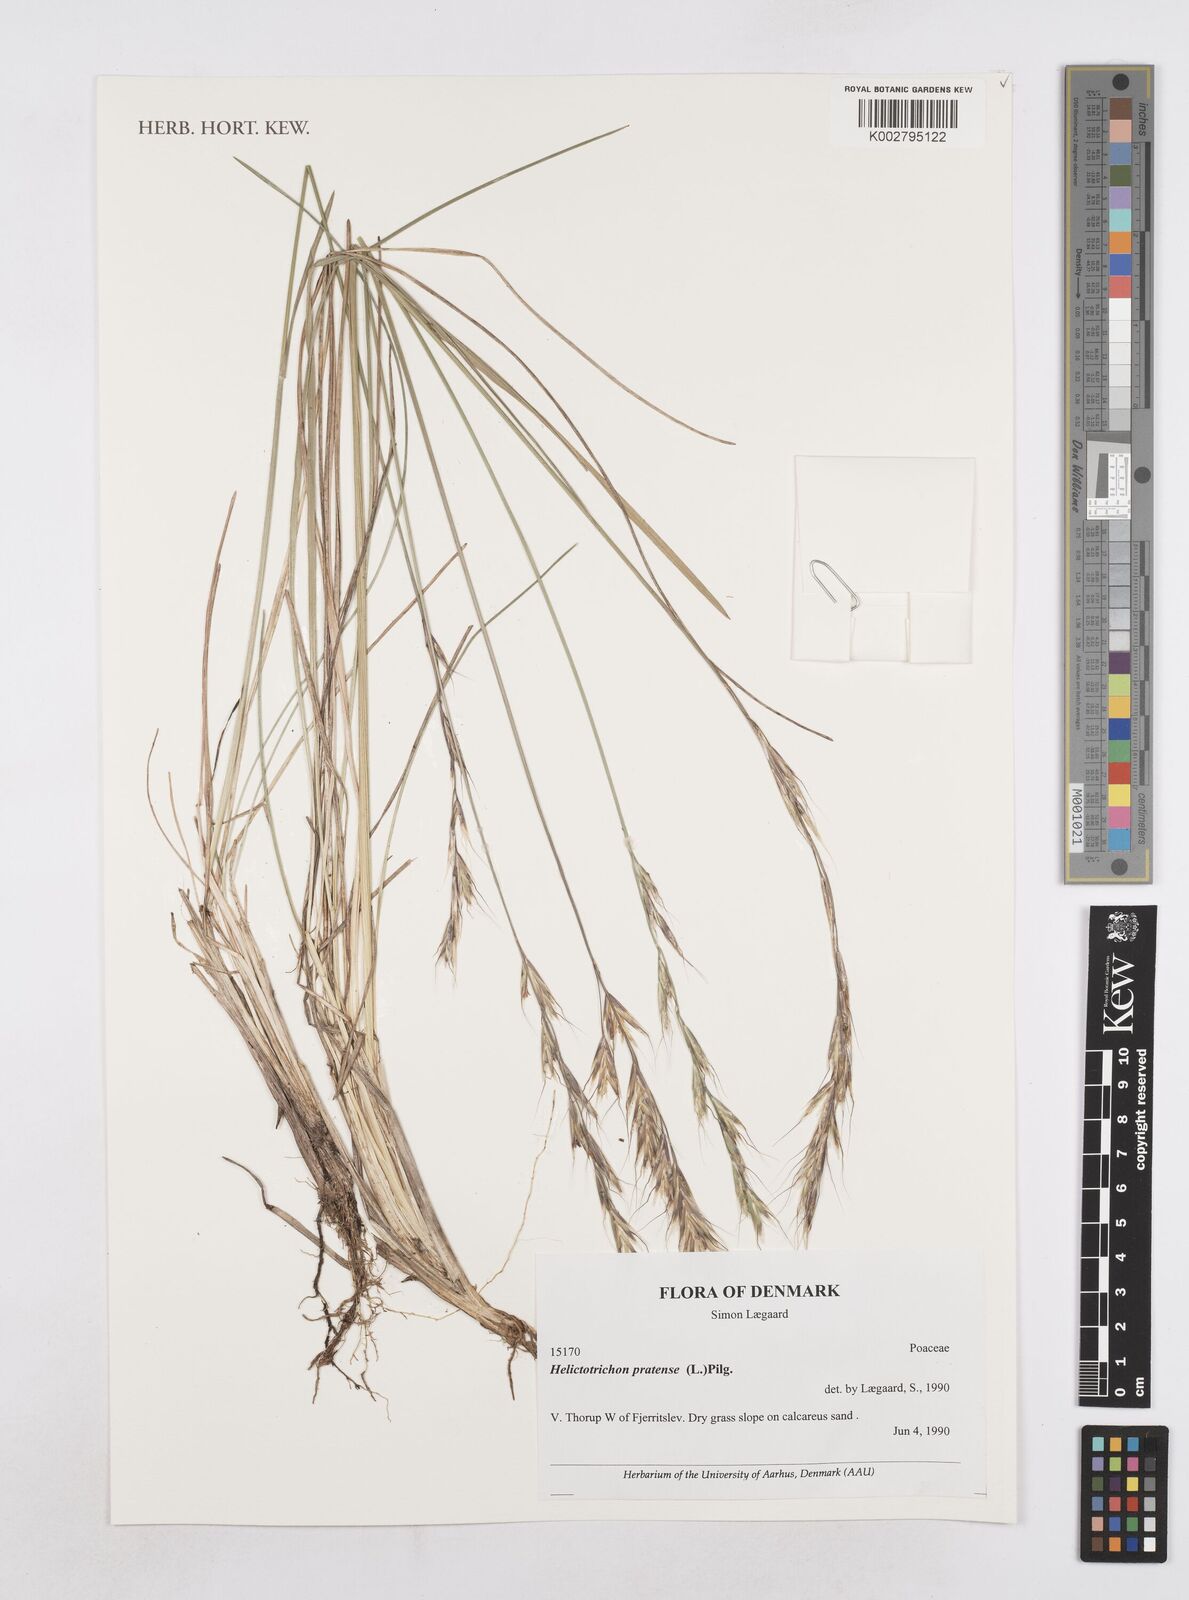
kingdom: Plantae
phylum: Tracheophyta
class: Liliopsida
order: Poales
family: Poaceae
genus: Helictochloa
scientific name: Helictochloa pratensis
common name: Meadow oat grass
